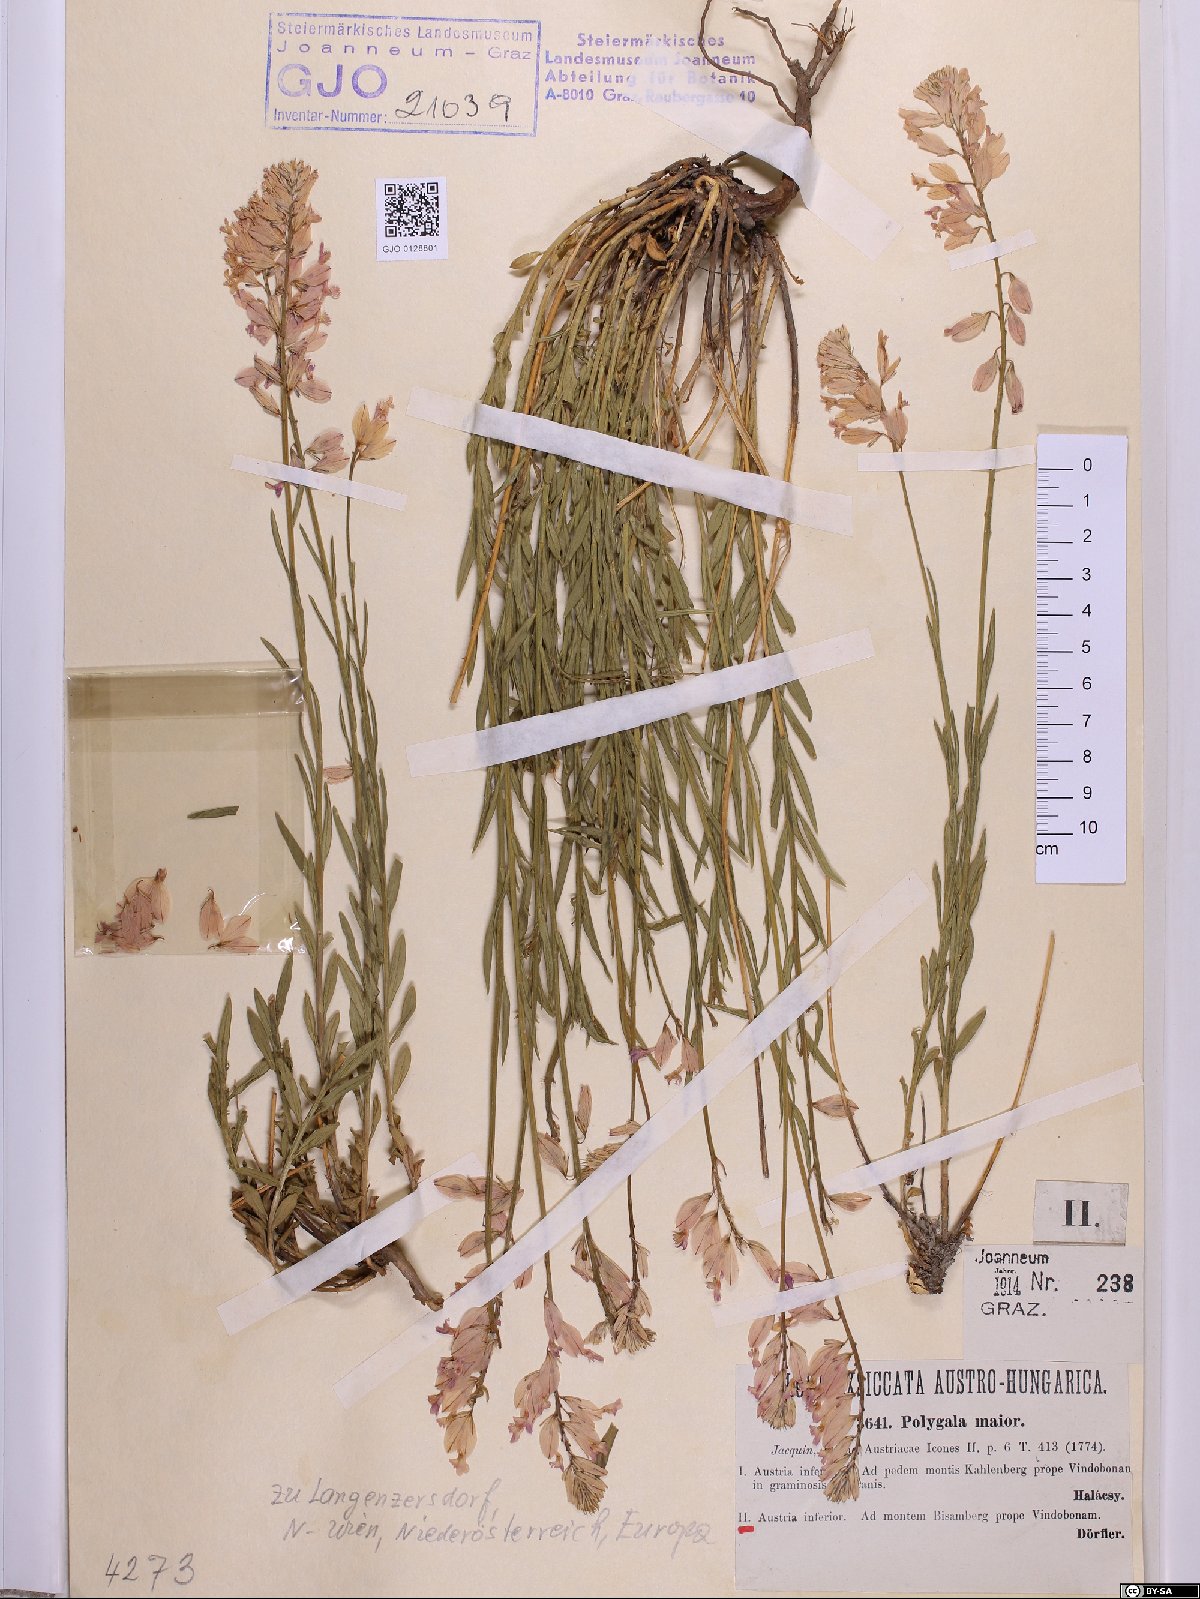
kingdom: Plantae
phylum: Tracheophyta
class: Magnoliopsida
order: Fabales
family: Polygalaceae
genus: Polygala
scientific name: Polygala major
